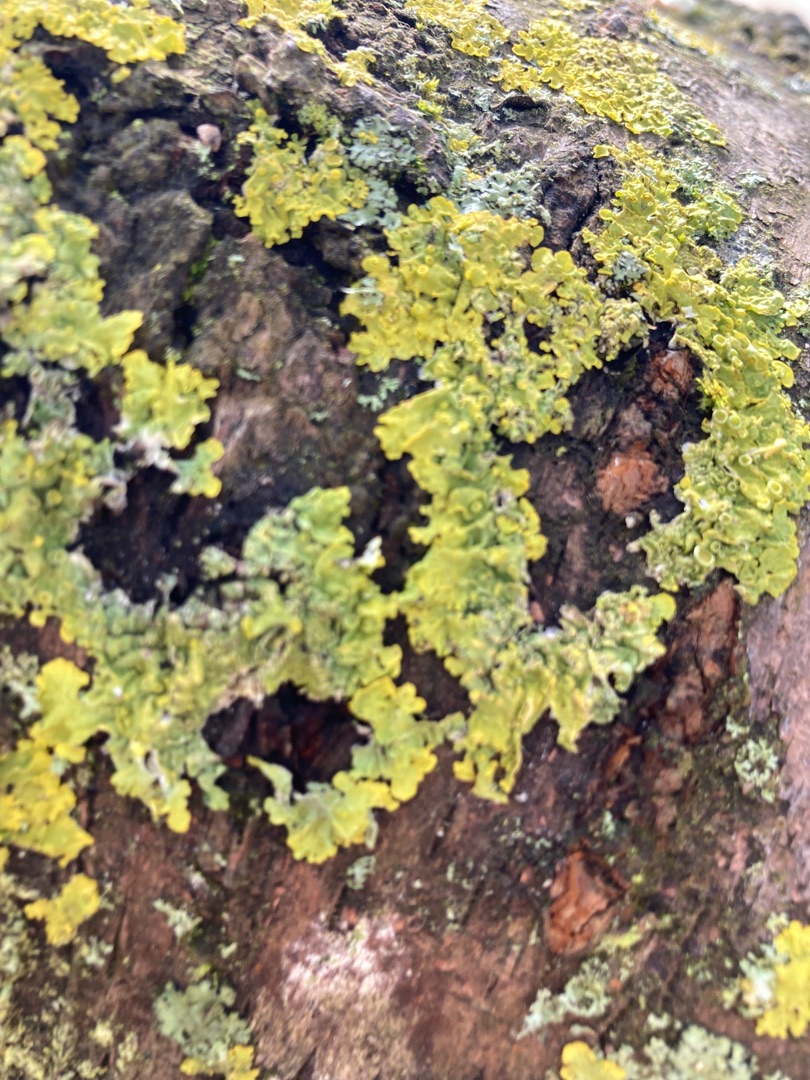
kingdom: Fungi
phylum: Ascomycota
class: Lecanoromycetes
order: Teloschistales
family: Teloschistaceae
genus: Xanthoria
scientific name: Xanthoria parietina
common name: Almindelig væggelav
